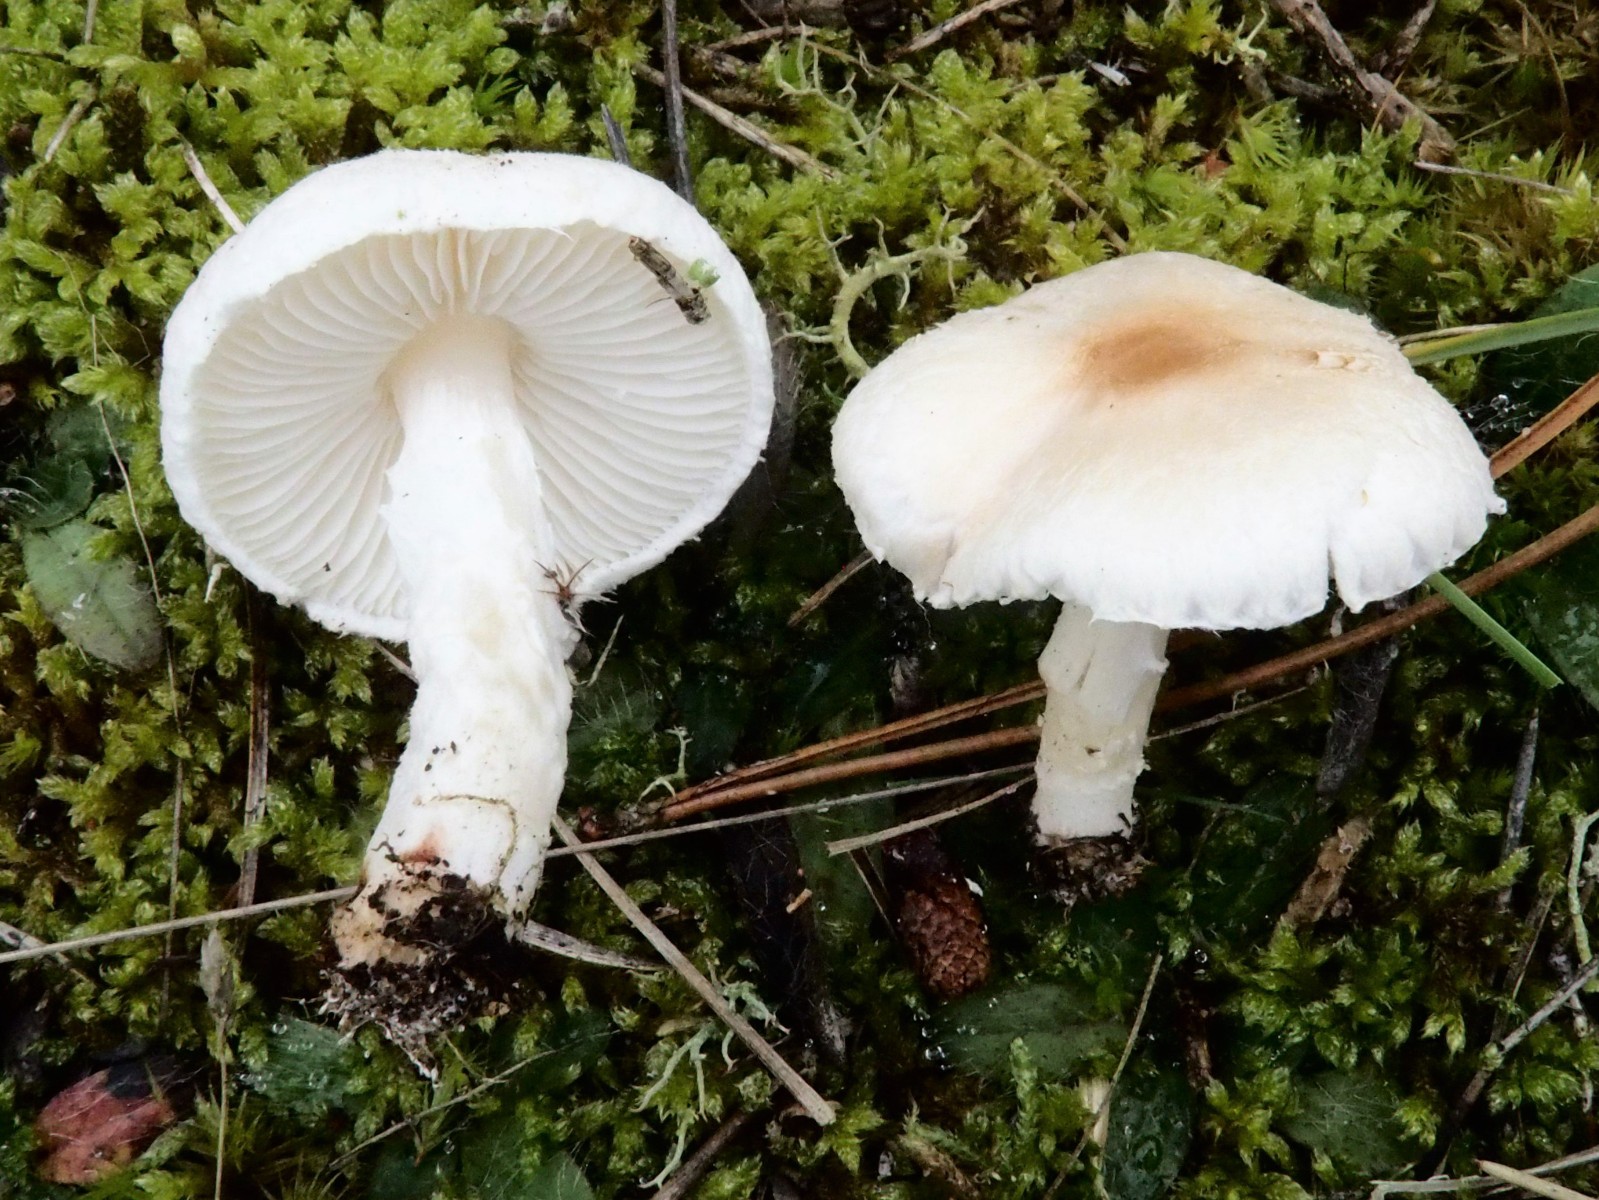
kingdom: Fungi
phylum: Basidiomycota
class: Agaricomycetes
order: Agaricales
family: Agaricaceae
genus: Lepiota
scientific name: Lepiota erminea
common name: hvid parasolhat
